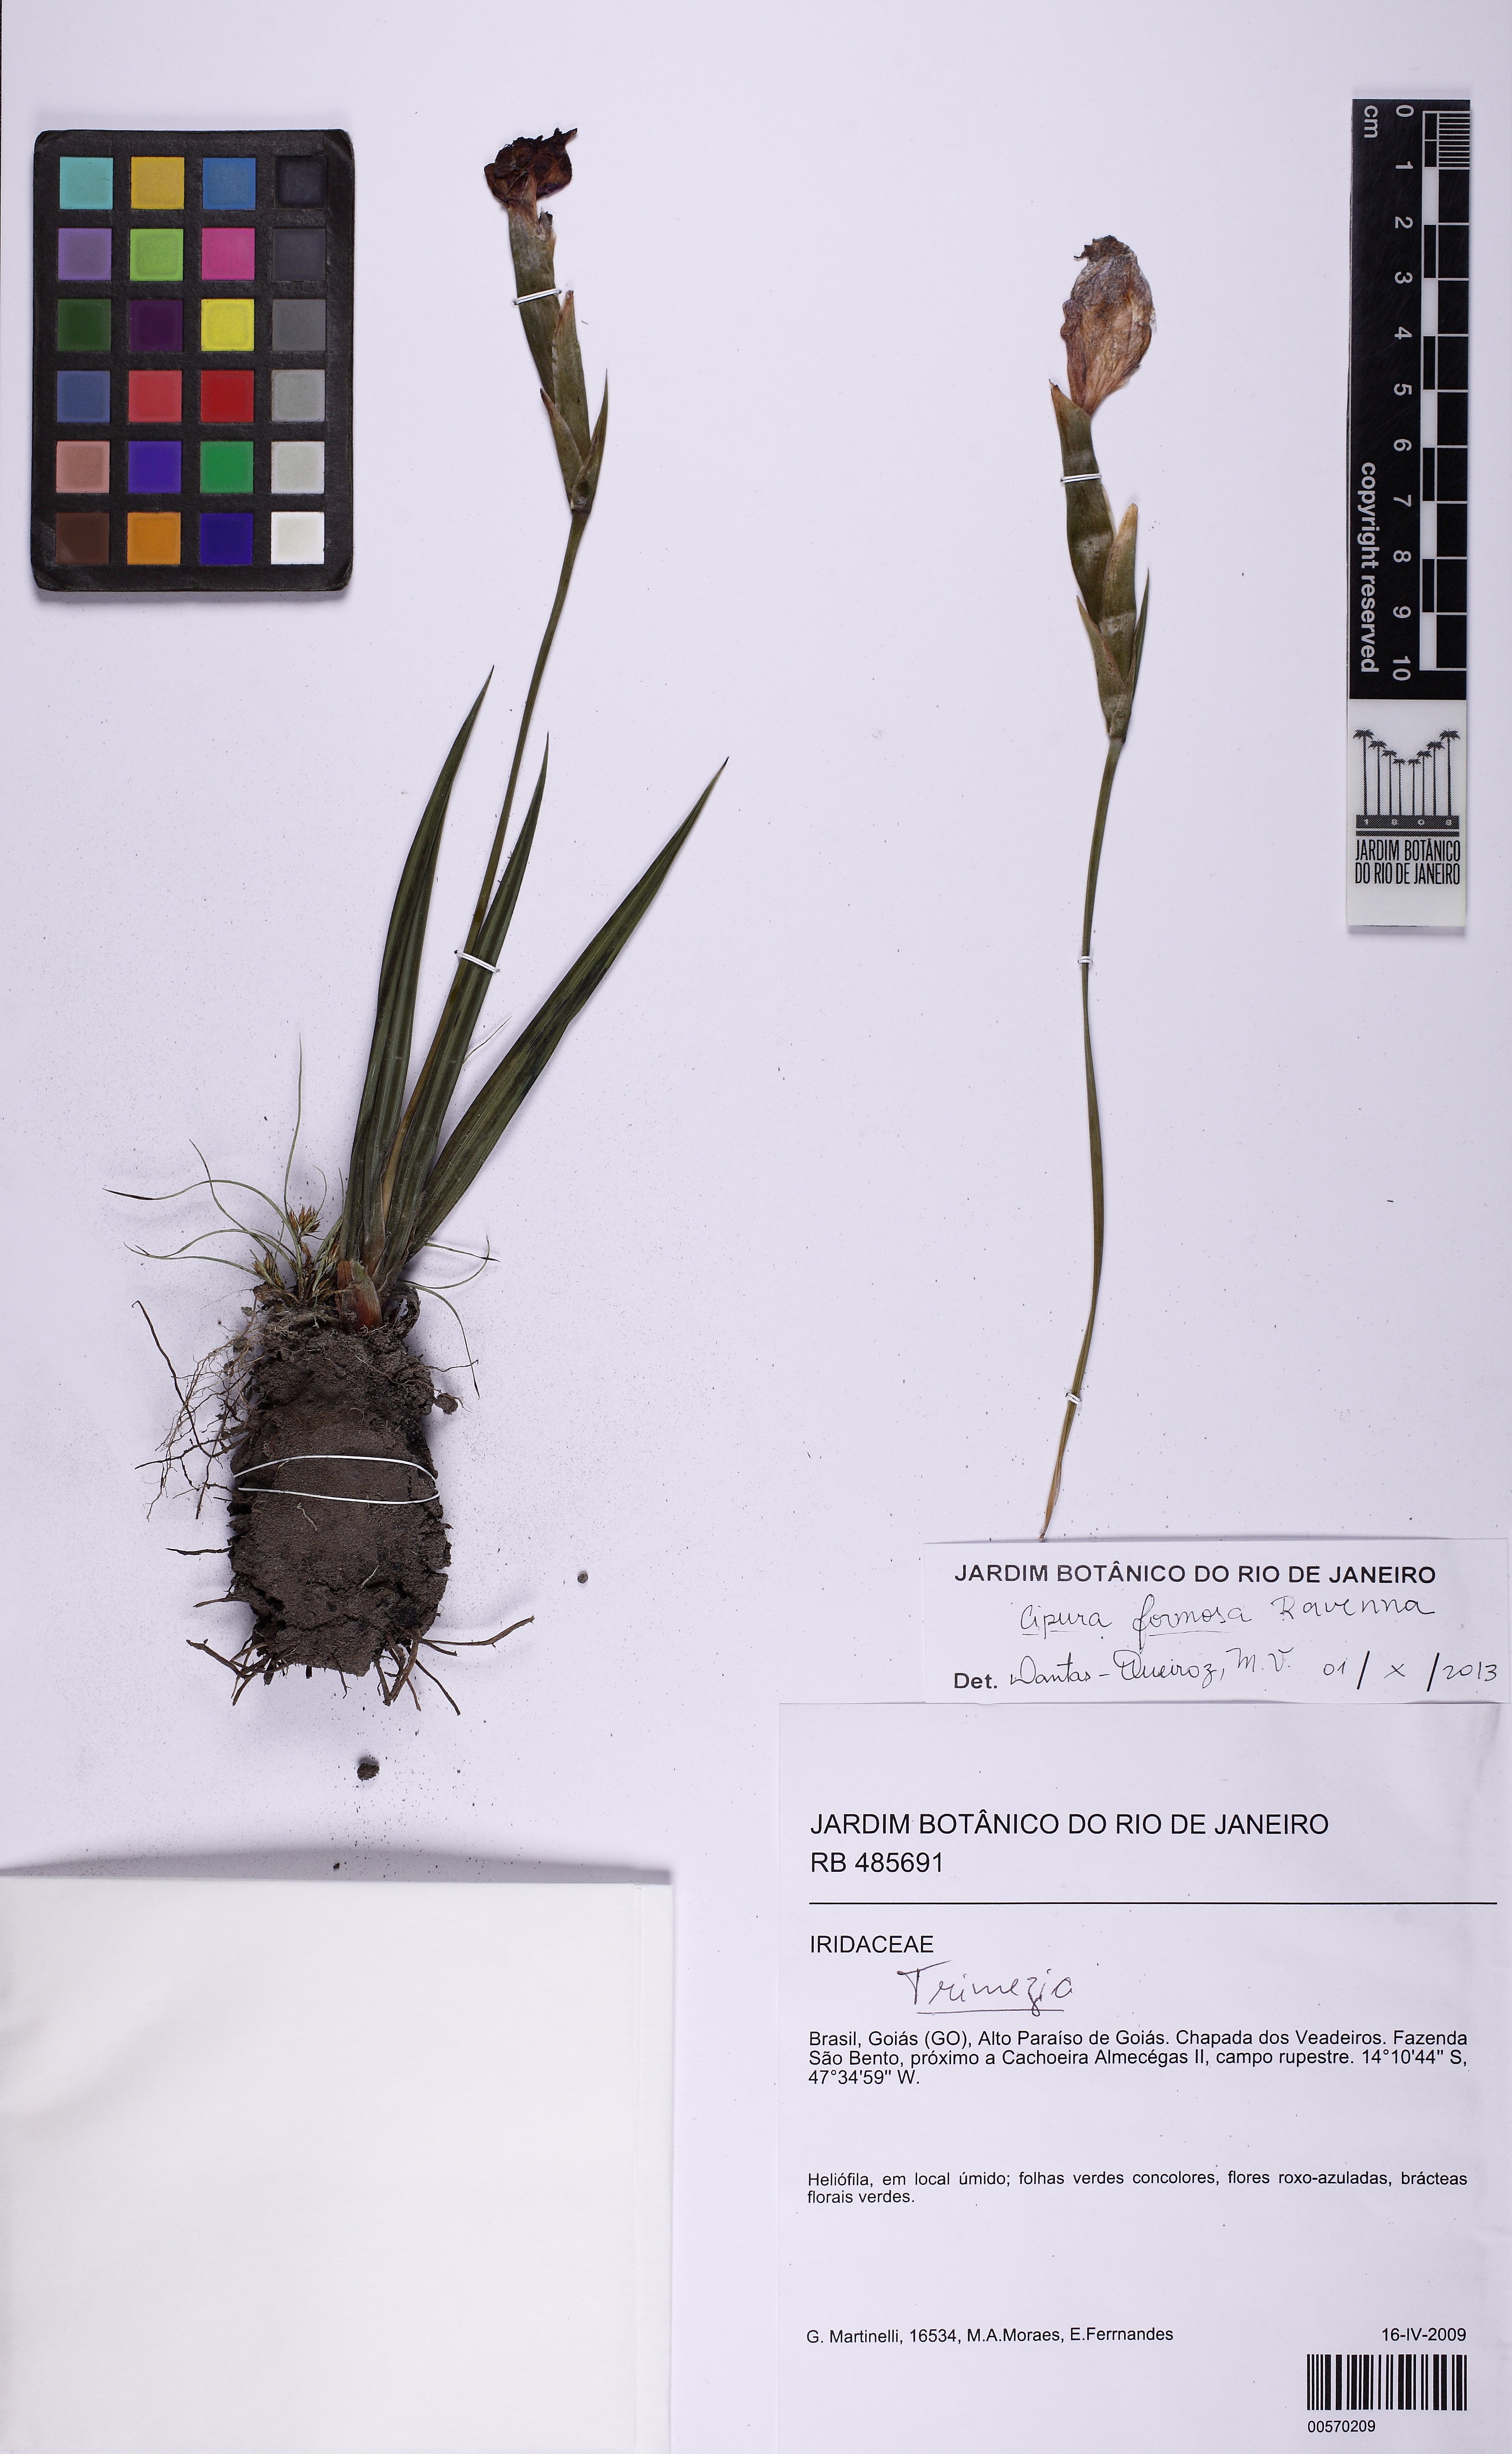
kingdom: Plantae
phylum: Tracheophyta
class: Liliopsida
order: Asparagales
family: Iridaceae
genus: Cipura
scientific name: Cipura formosa
